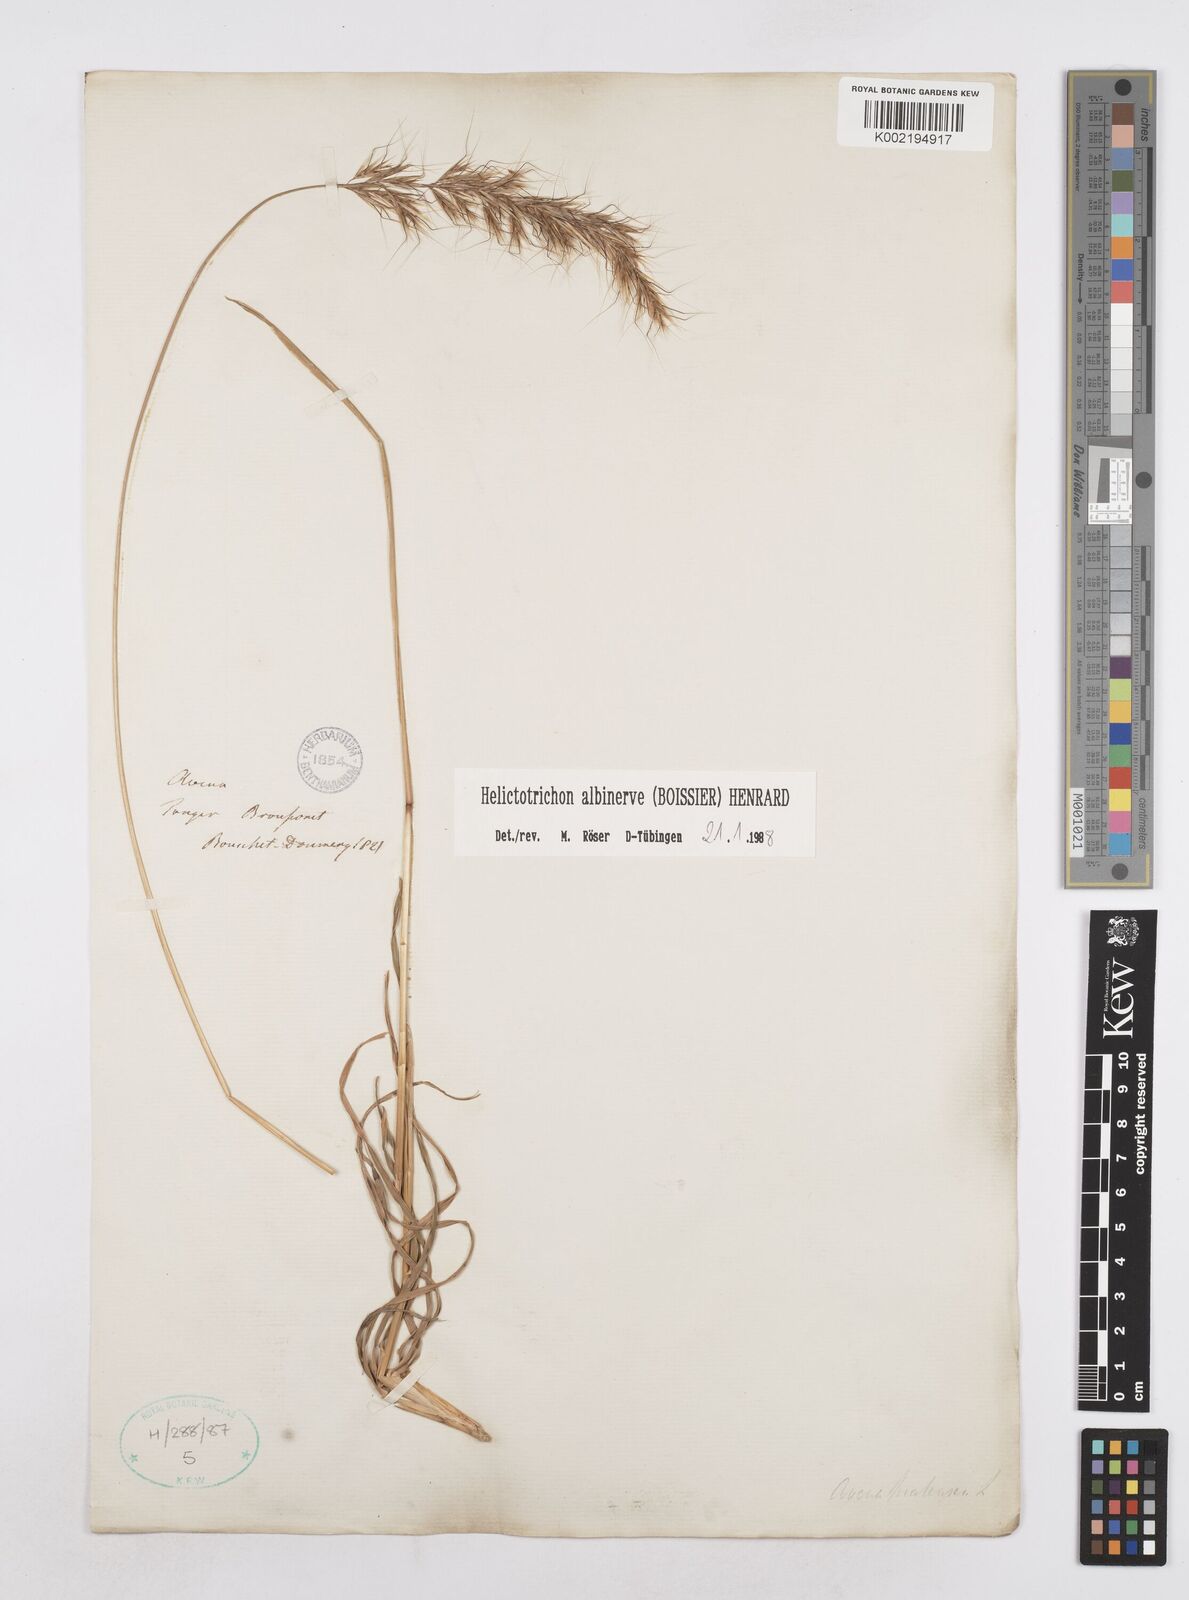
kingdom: Plantae
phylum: Tracheophyta
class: Liliopsida
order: Poales
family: Poaceae
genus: Helictochloa
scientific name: Helictochloa albinervis
